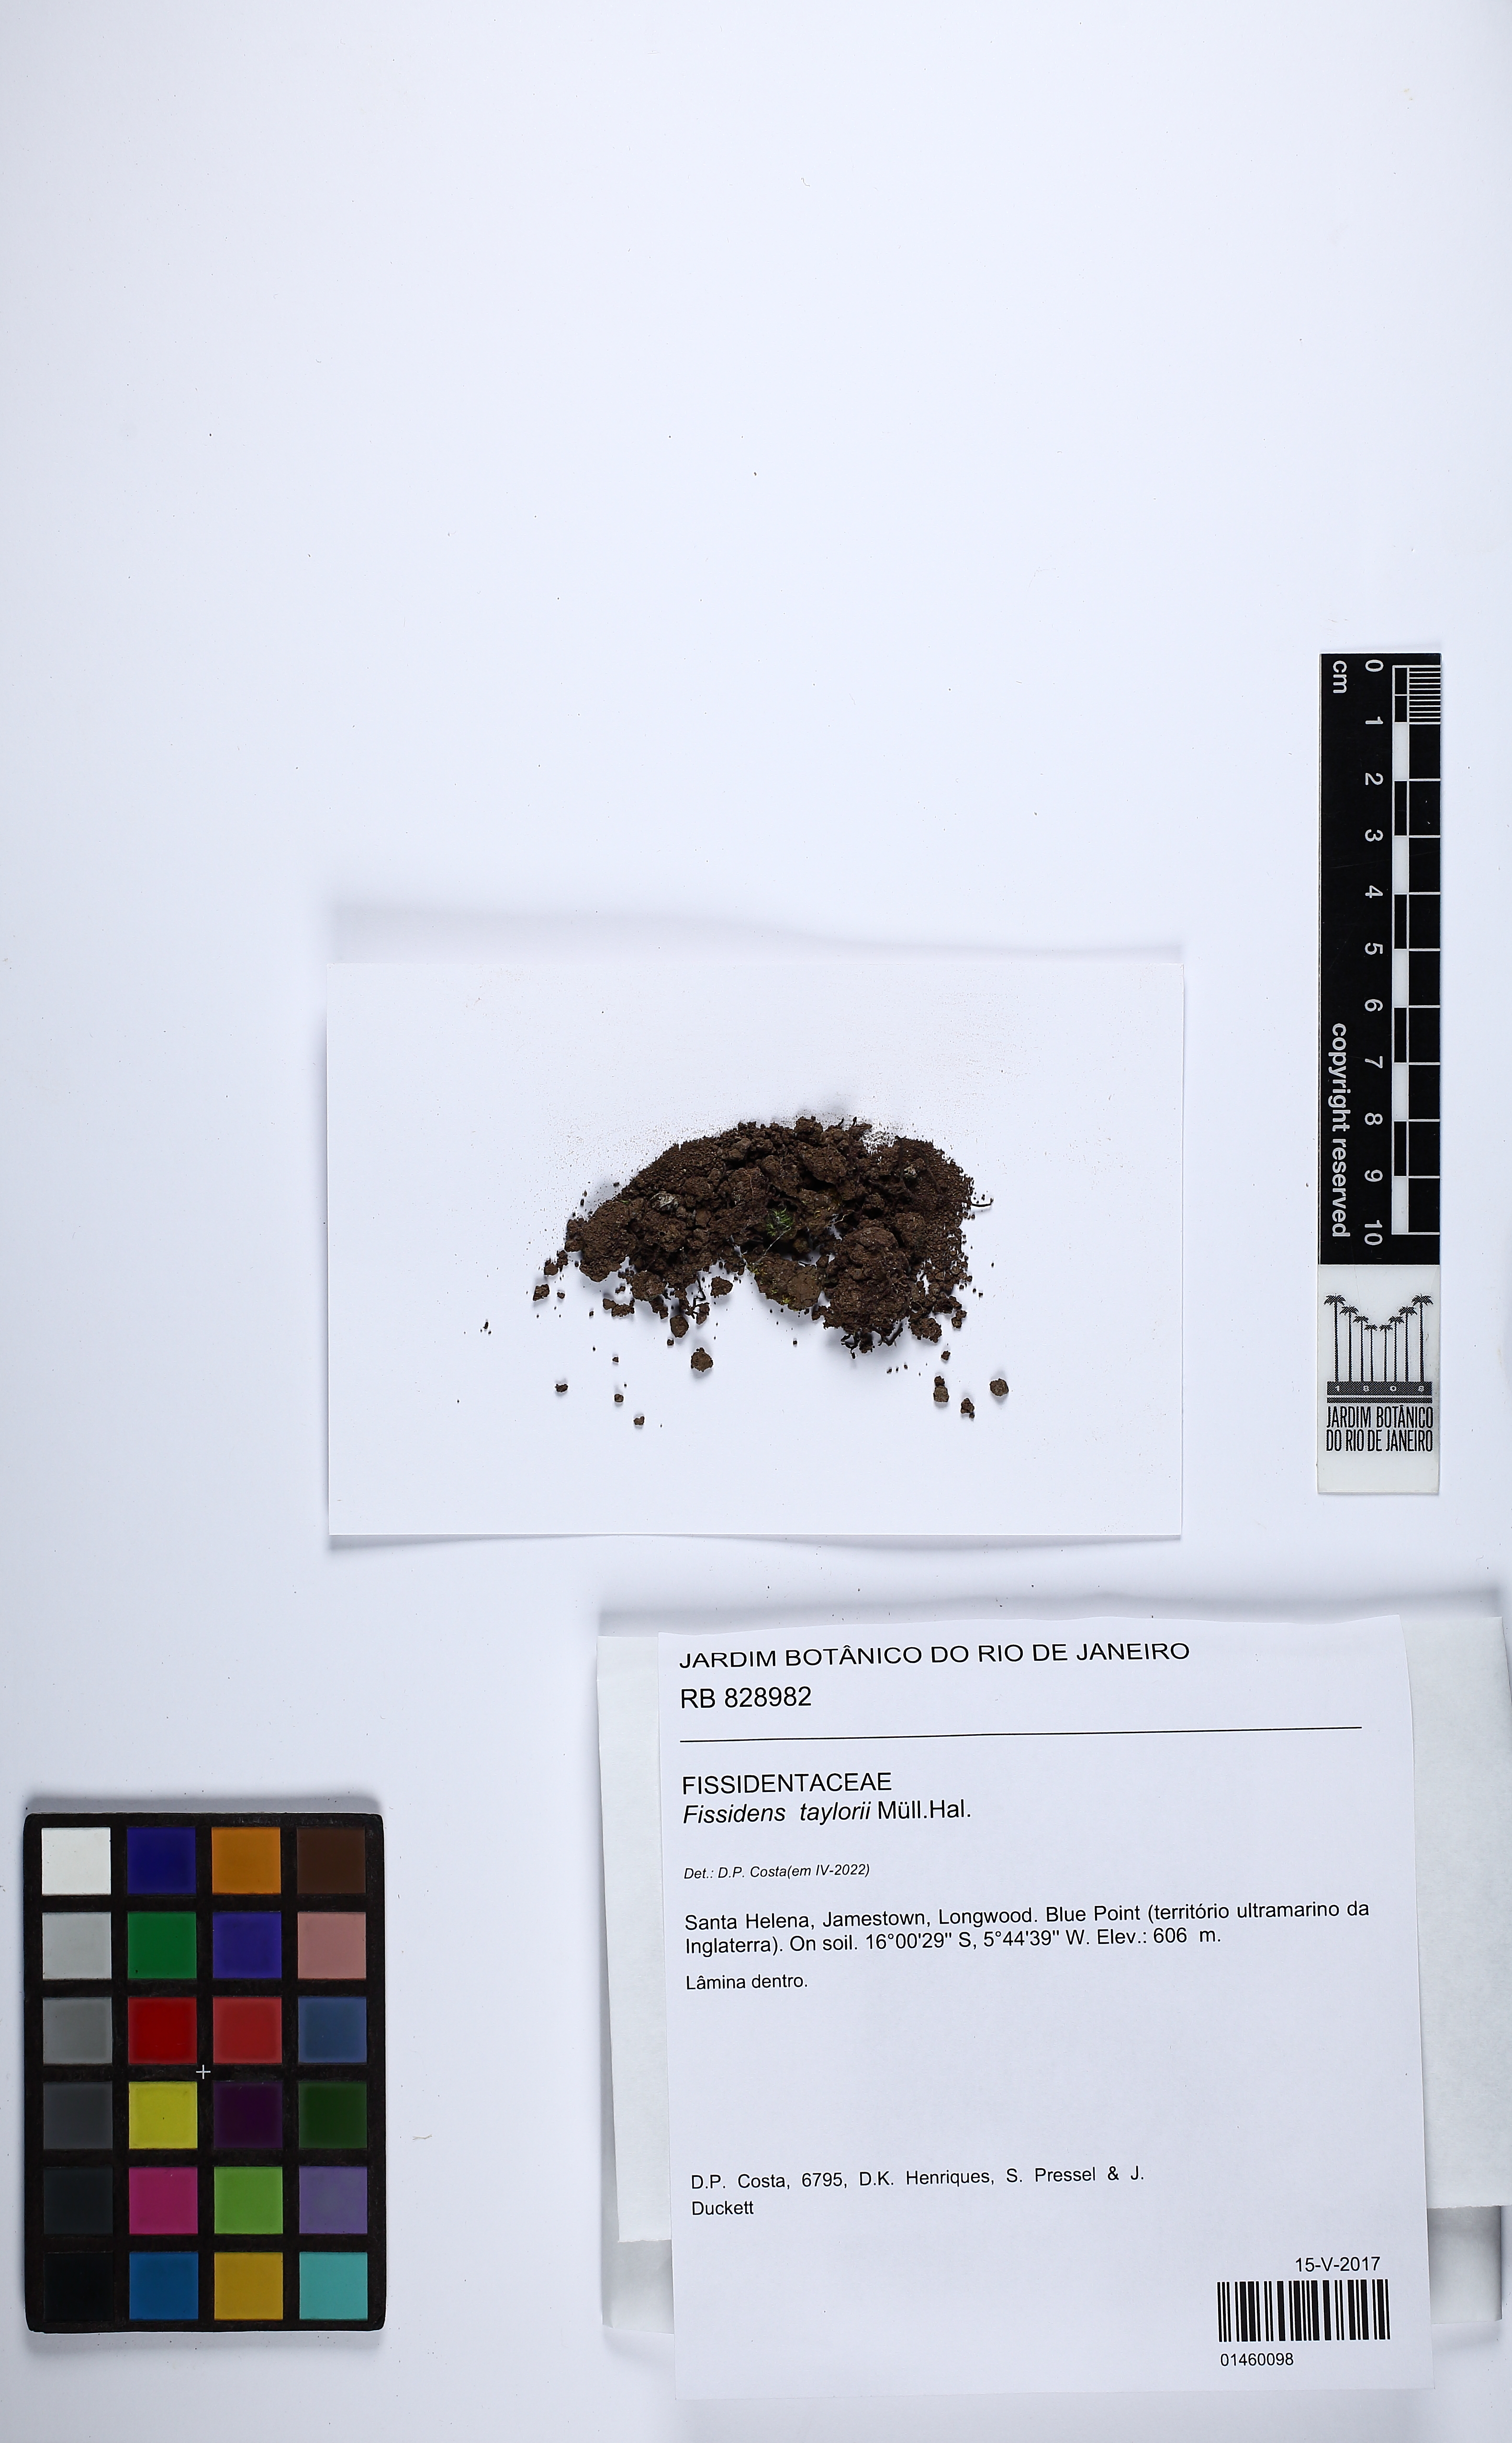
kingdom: Plantae
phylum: Bryophyta
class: Bryopsida
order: Dicranales
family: Fissidentaceae
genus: Fissidens
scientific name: Fissidens taylorii
